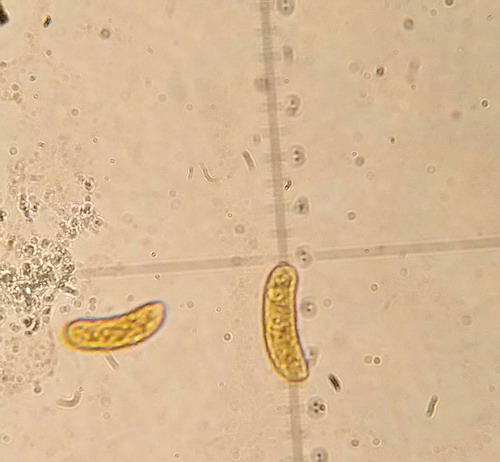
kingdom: Fungi
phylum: Basidiomycota
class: Agaricomycetes
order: Corticiales
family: Vuilleminiaceae
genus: Vuilleminia
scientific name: Vuilleminia comedens
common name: almindelig barksprænger
